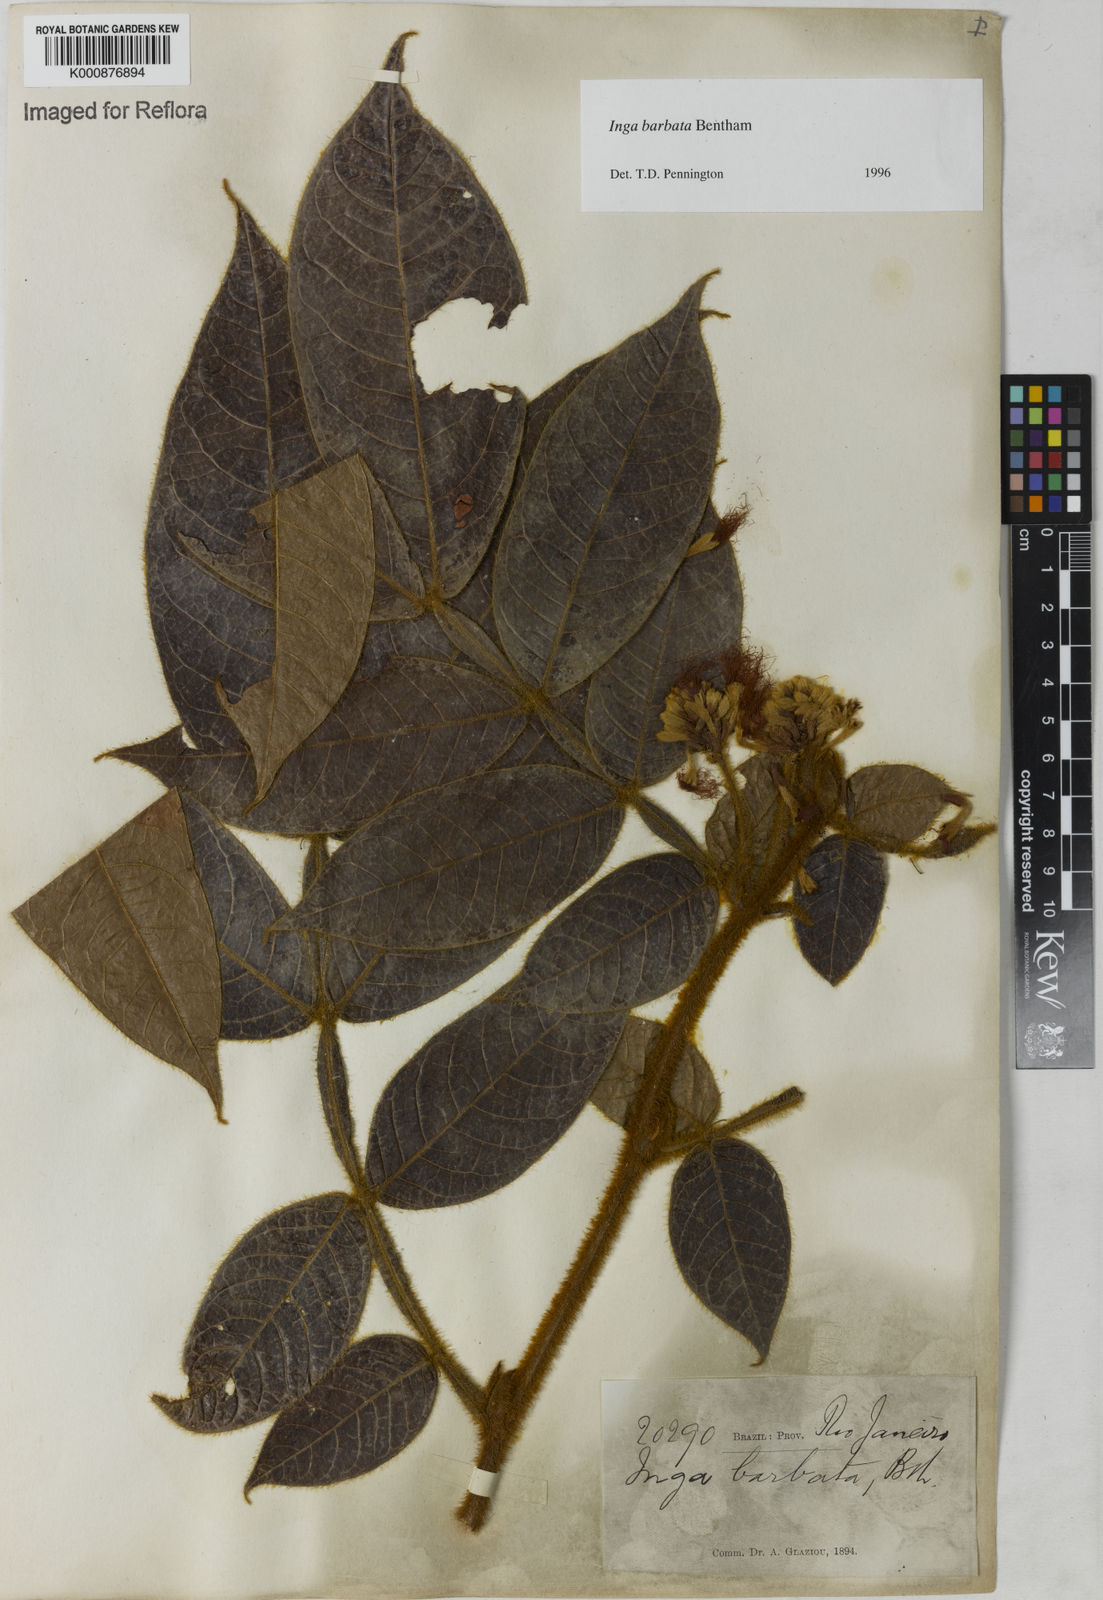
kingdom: Plantae
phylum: Tracheophyta
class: Magnoliopsida
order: Fabales
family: Fabaceae
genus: Inga
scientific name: Inga barbata
